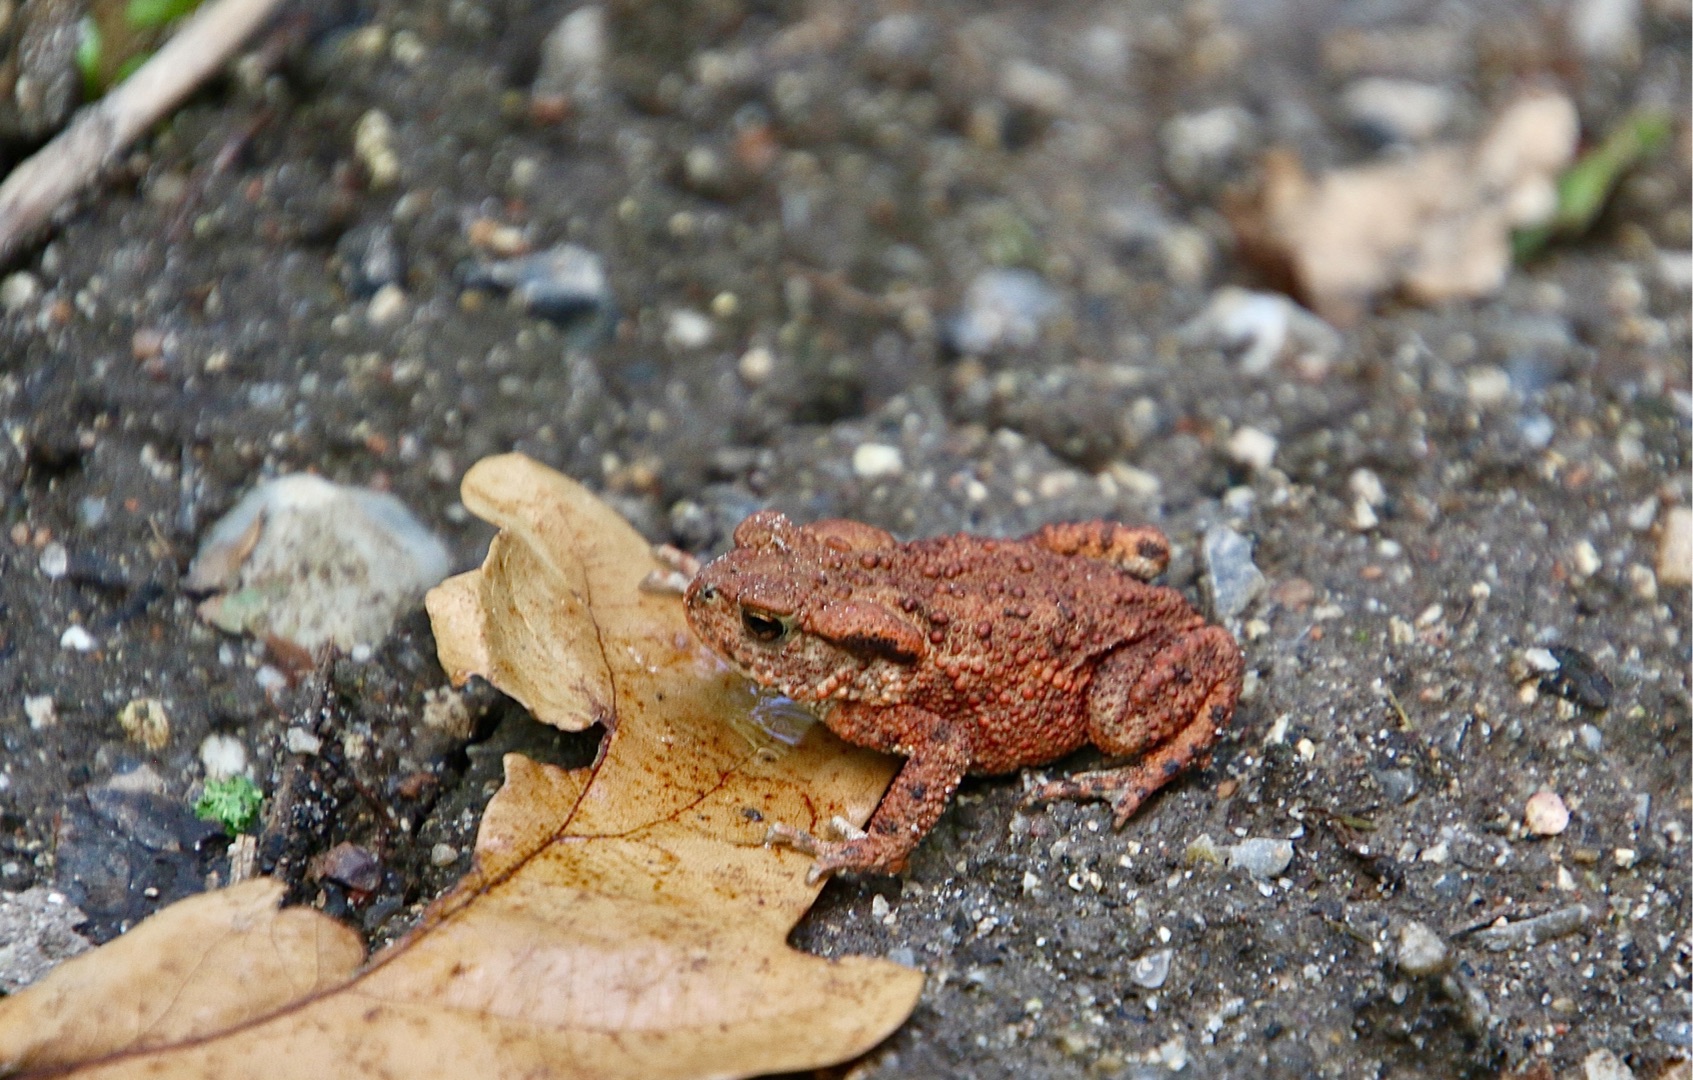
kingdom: Animalia
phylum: Chordata
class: Amphibia
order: Anura
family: Bufonidae
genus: Bufo
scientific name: Bufo bufo
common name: Skrubtudse
